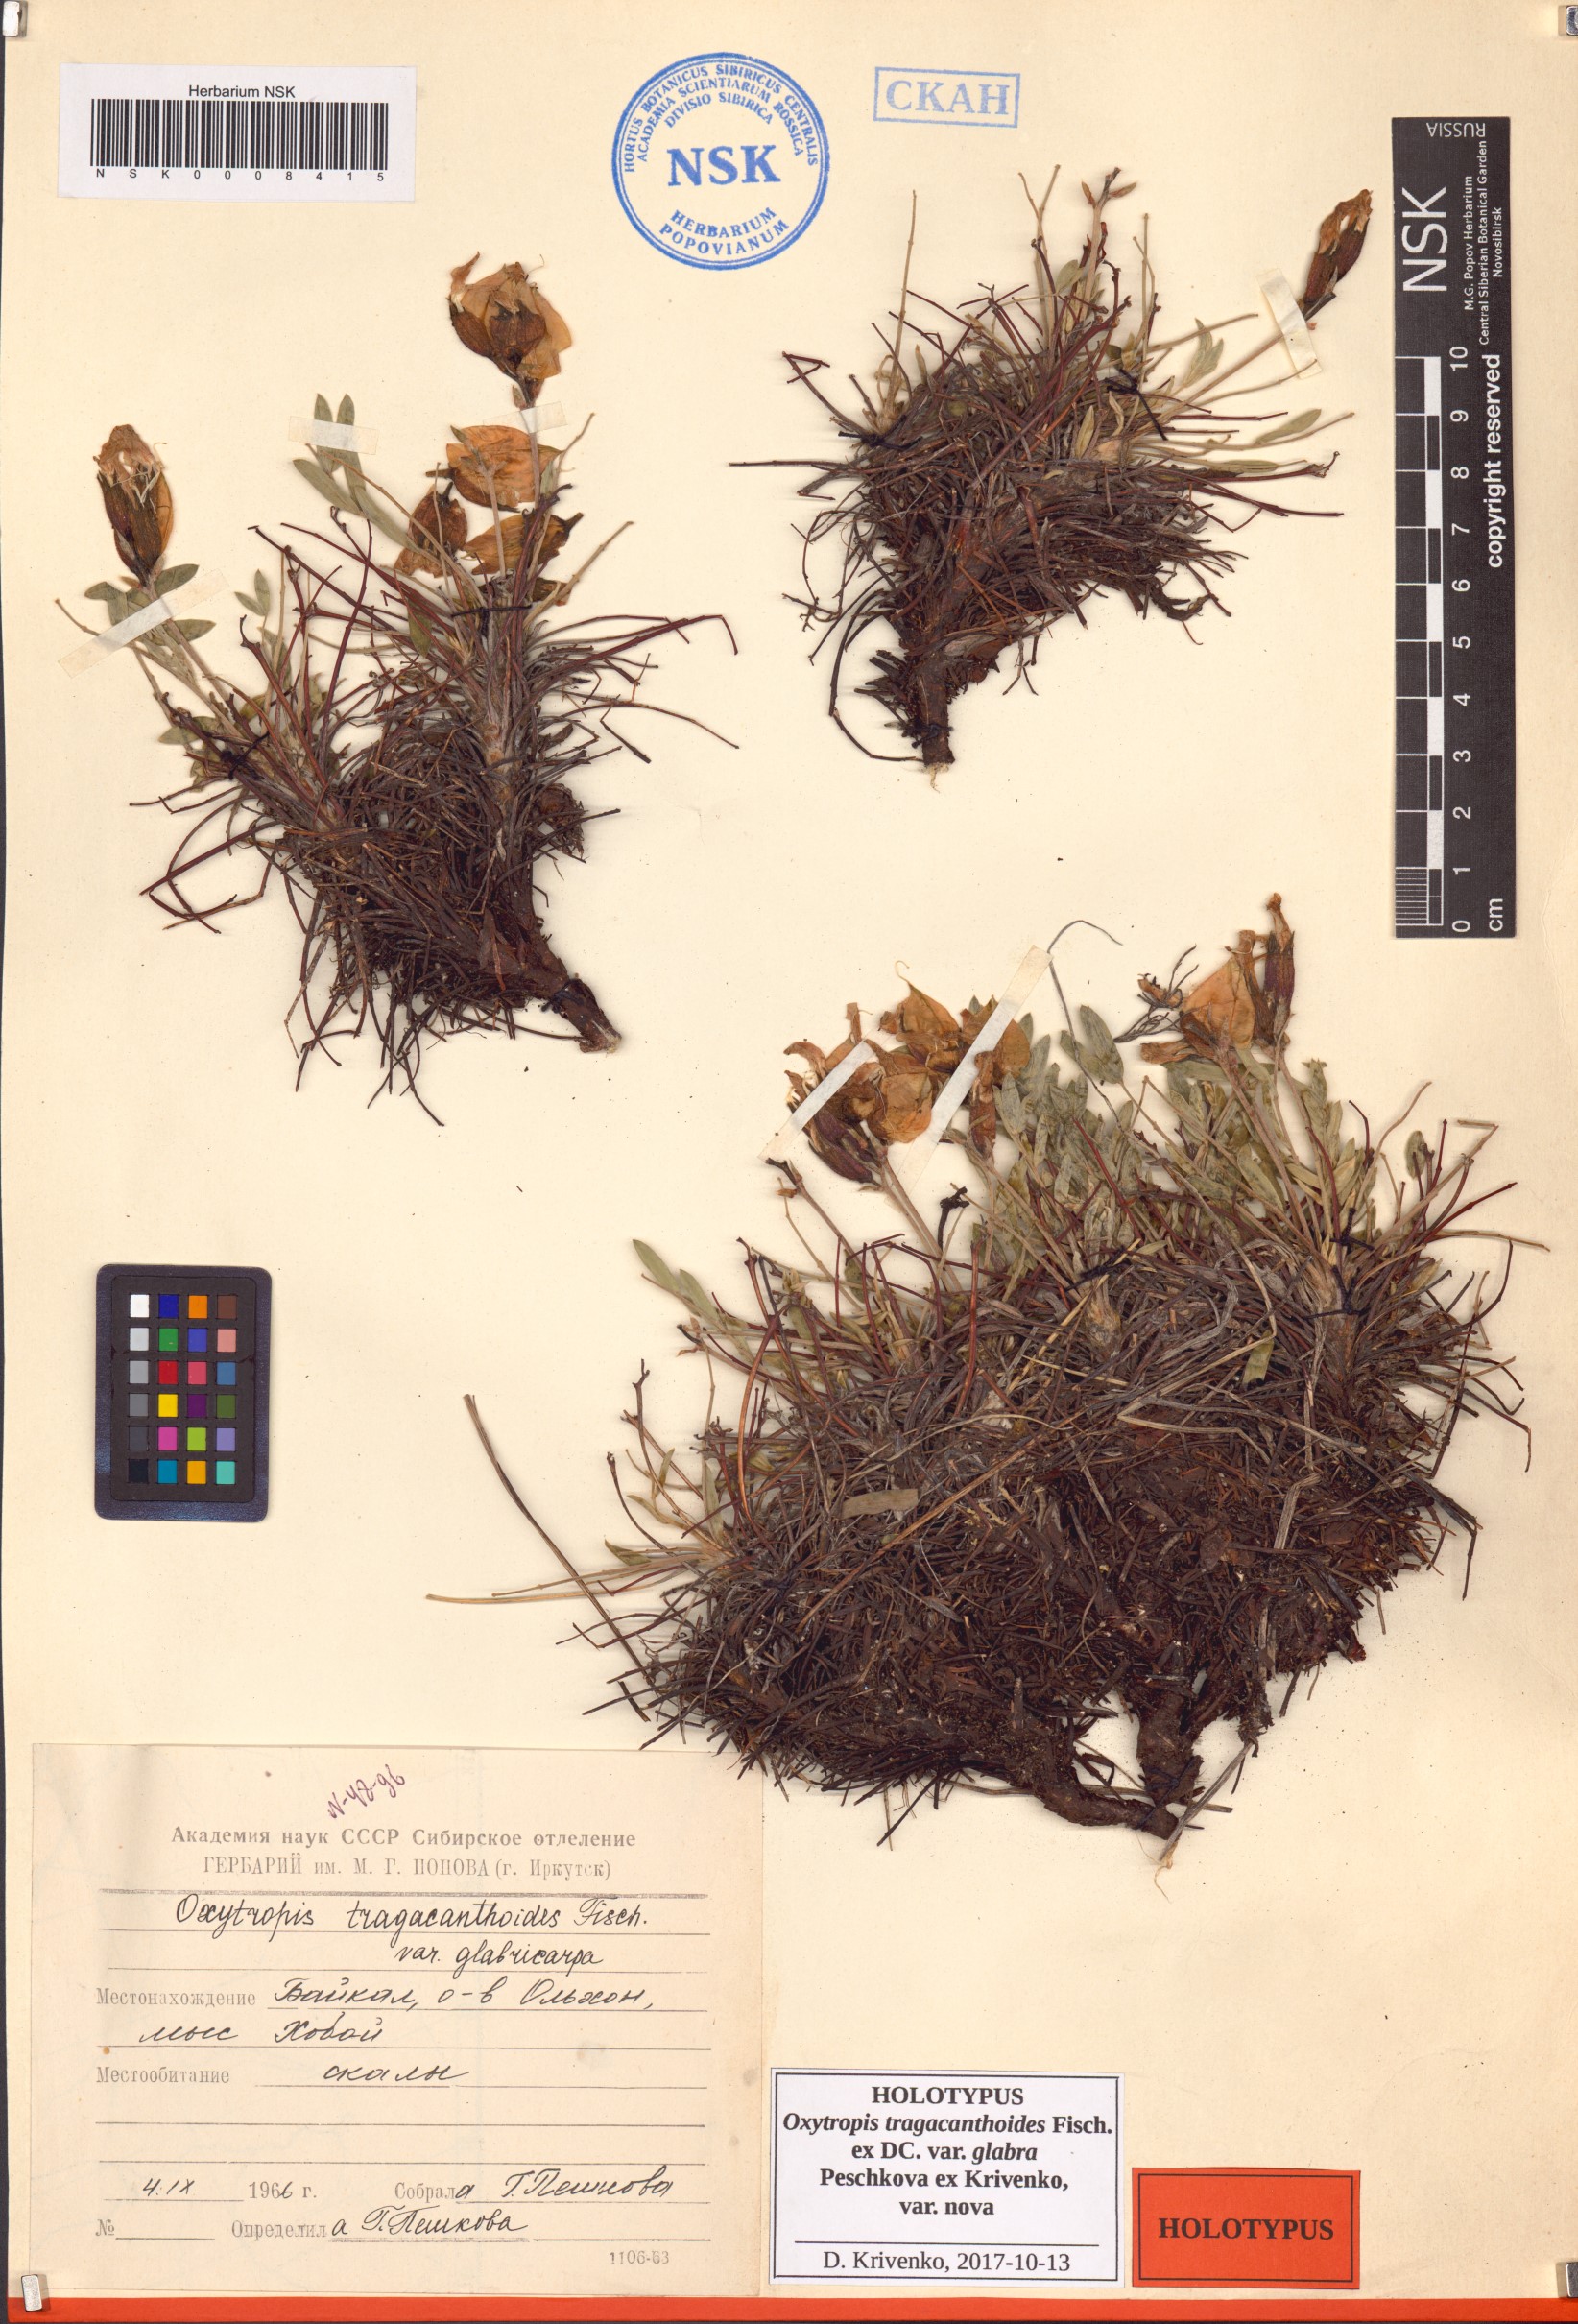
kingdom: Plantae
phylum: Tracheophyta
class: Magnoliopsida
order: Fabales
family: Fabaceae
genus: Oxytropis
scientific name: Oxytropis tragacanthoides
